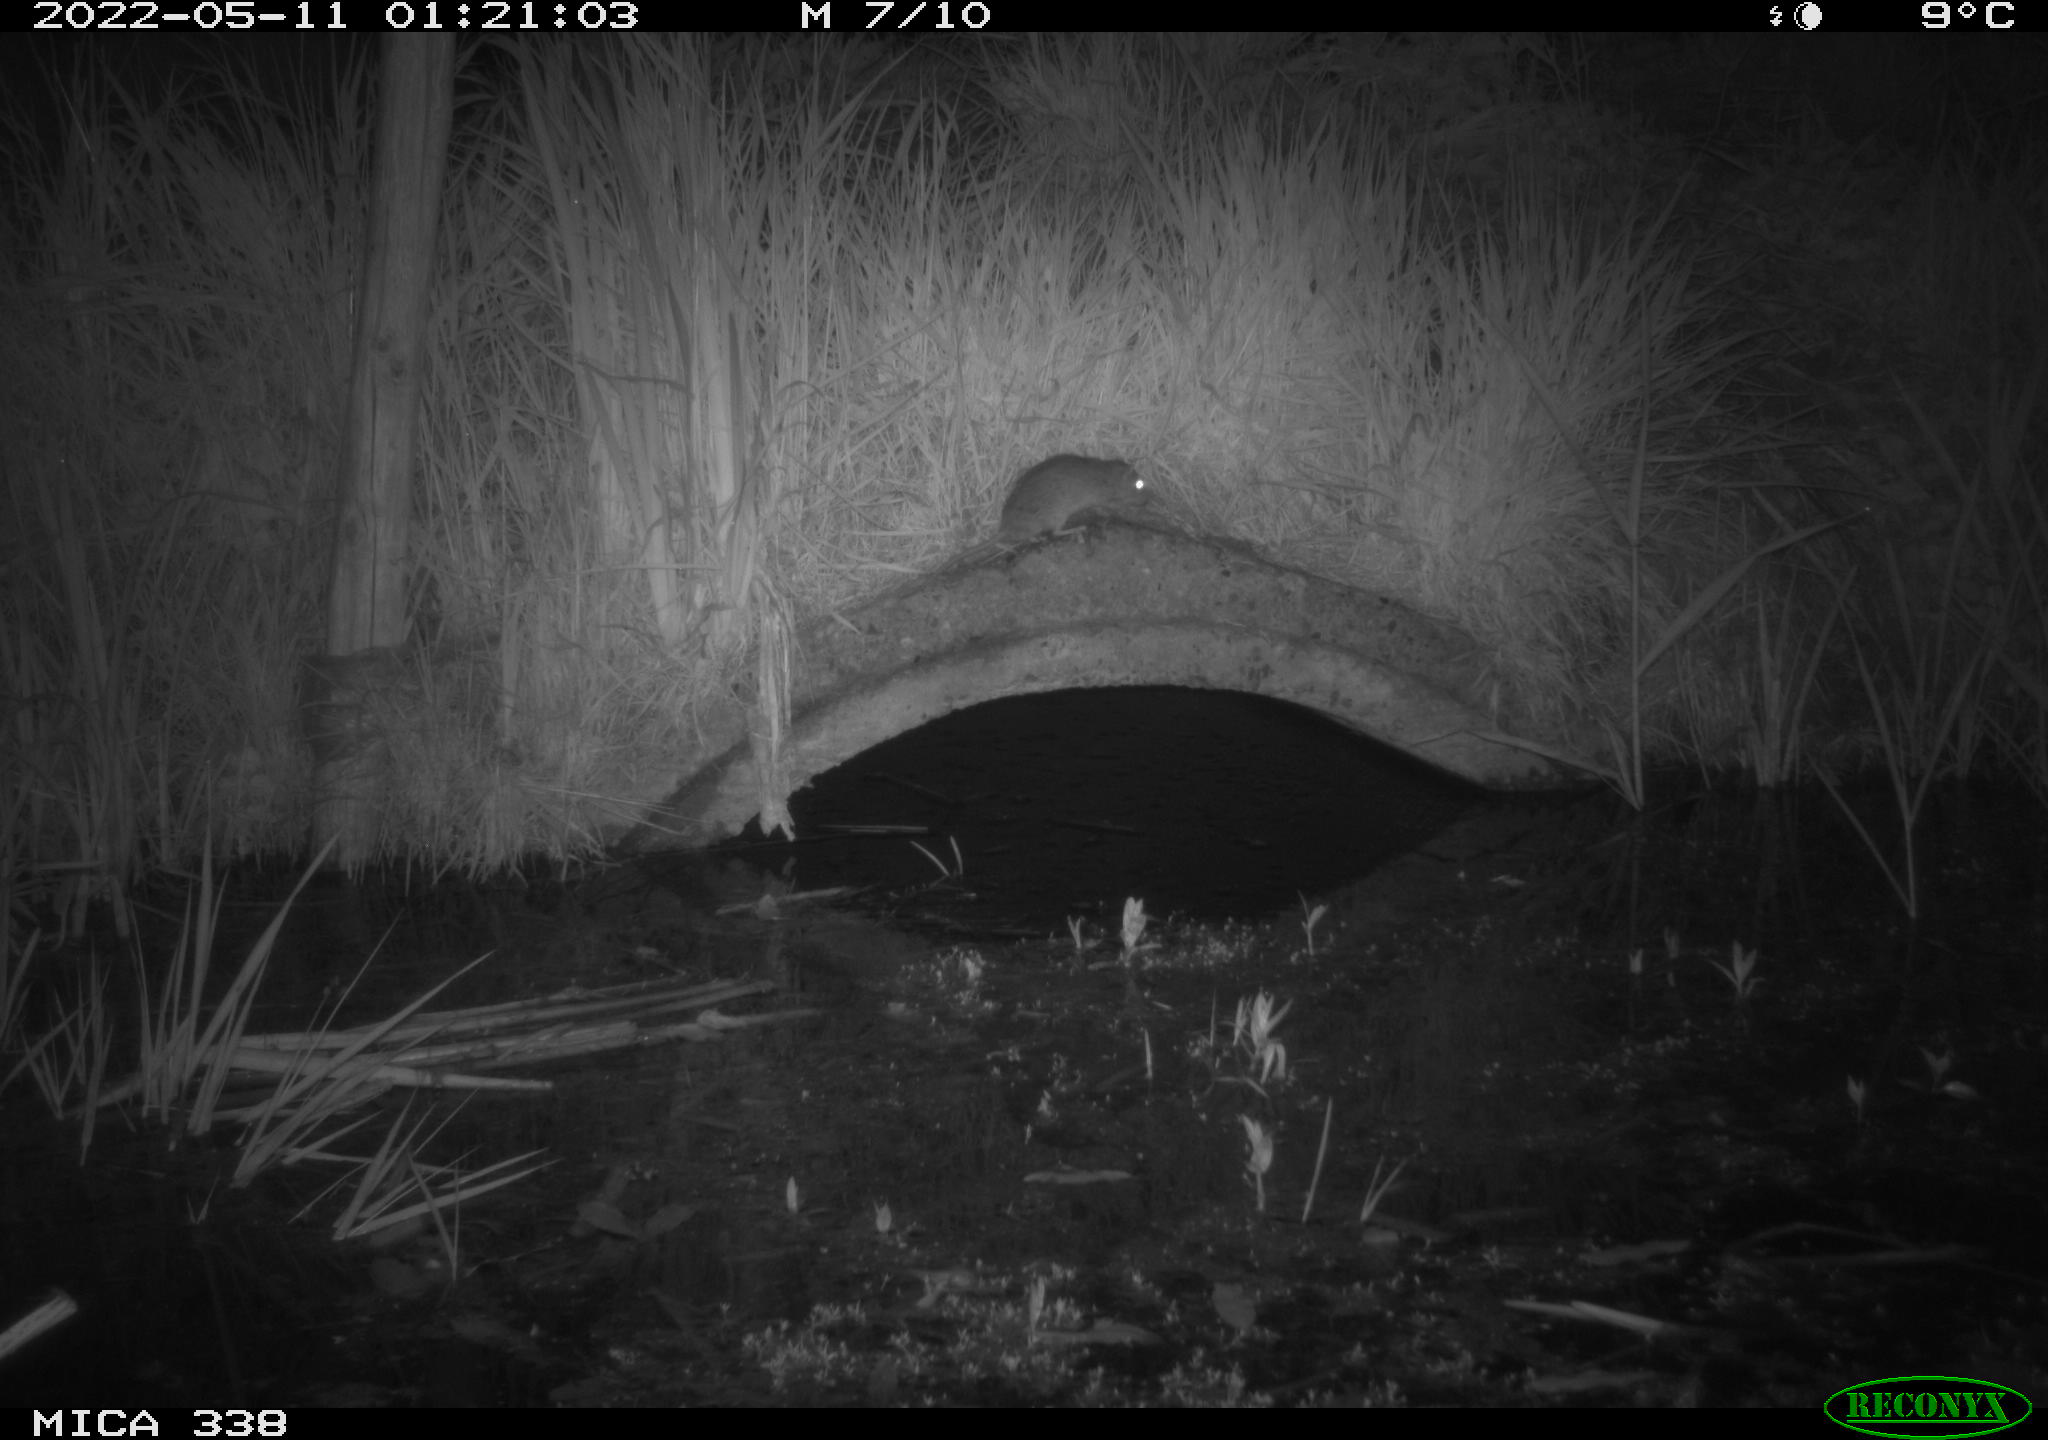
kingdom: Animalia
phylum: Chordata
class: Mammalia
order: Rodentia
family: Muridae
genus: Rattus
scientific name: Rattus norvegicus
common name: Brown rat
